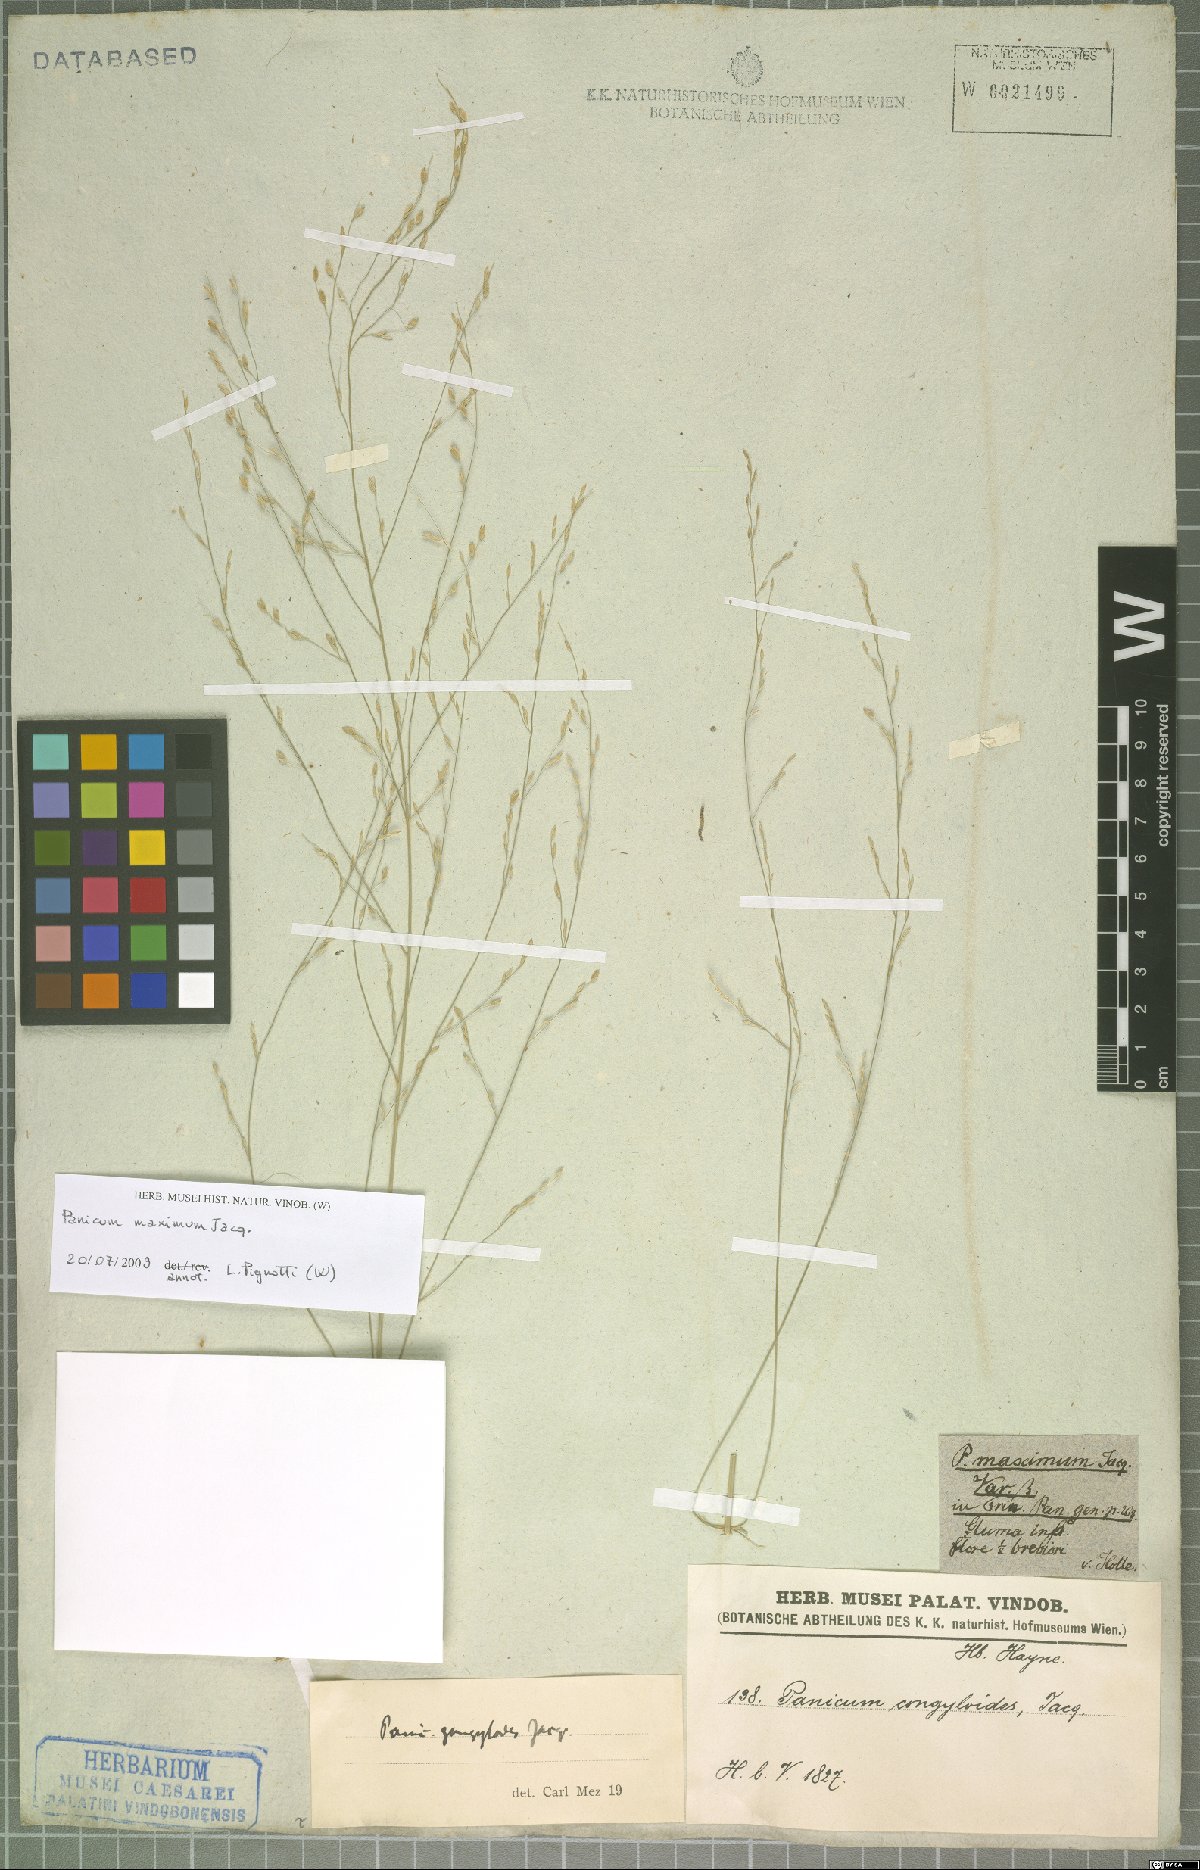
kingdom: Plantae
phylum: Tracheophyta
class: Liliopsida
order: Poales
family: Poaceae
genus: Megathyrsus
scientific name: Megathyrsus maximus
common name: Guineagrass
